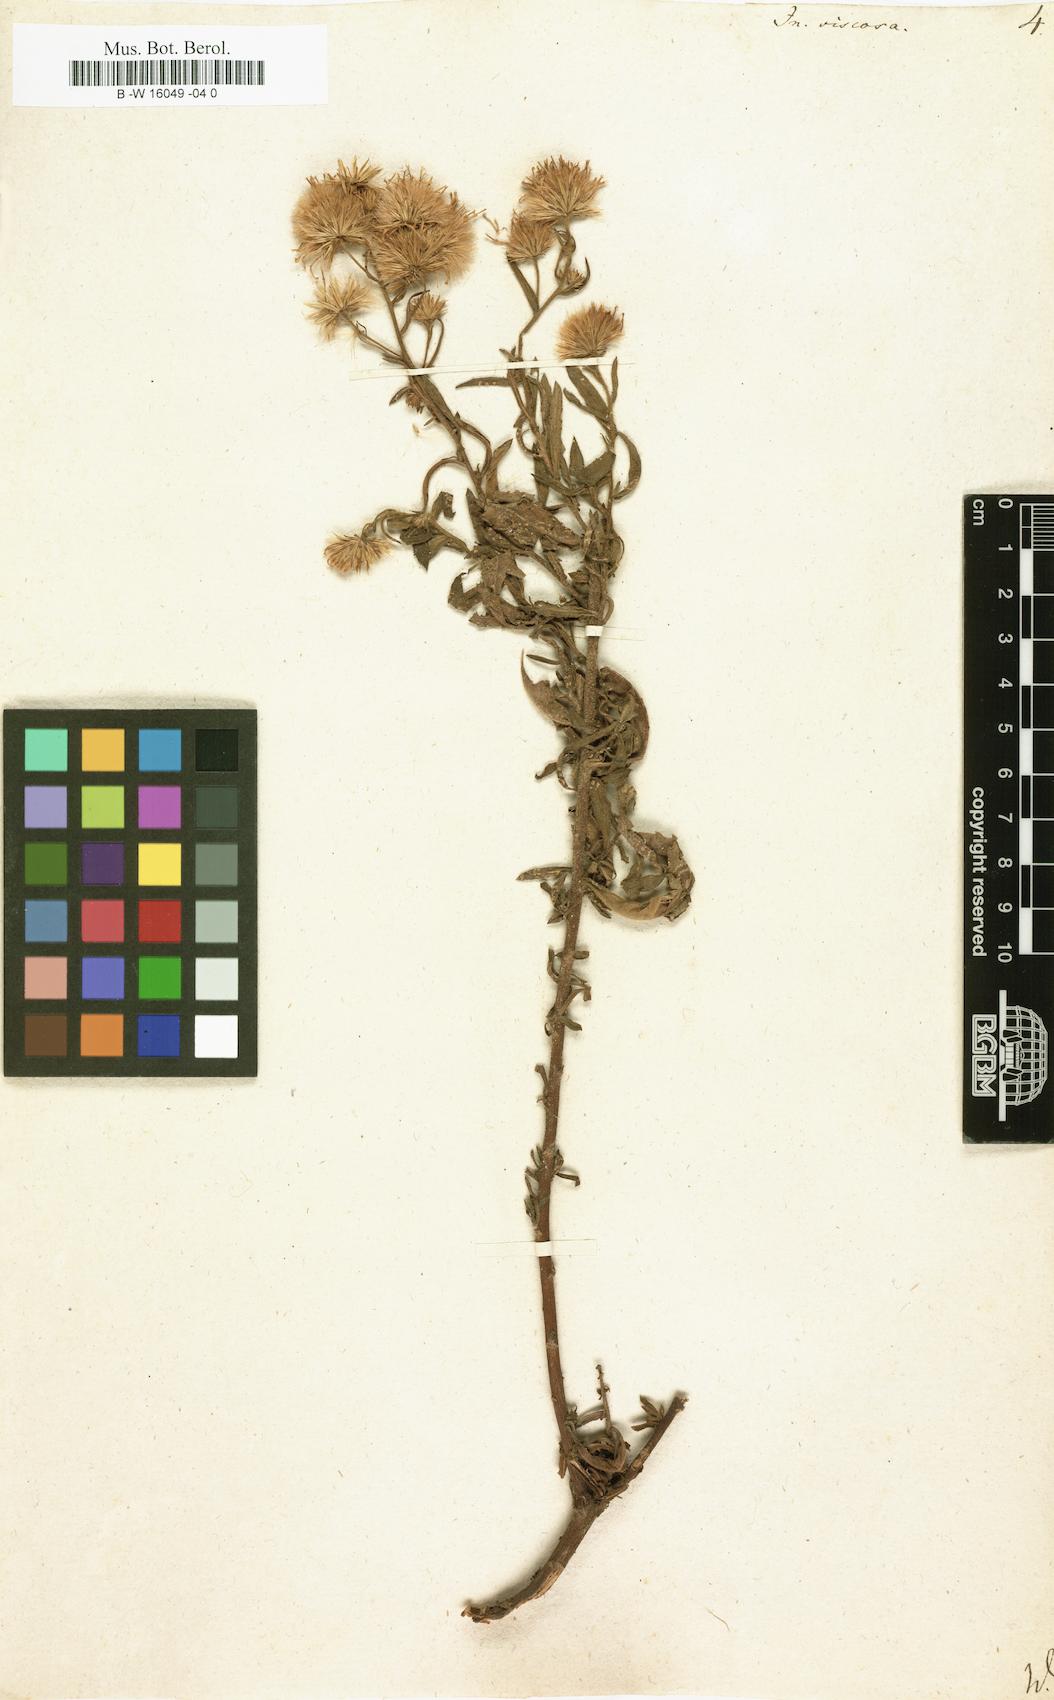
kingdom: Plantae
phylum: Tracheophyta
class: Magnoliopsida
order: Asterales
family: Asteraceae
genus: Dittrichia
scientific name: Dittrichia viscosa
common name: Woody fleabane
